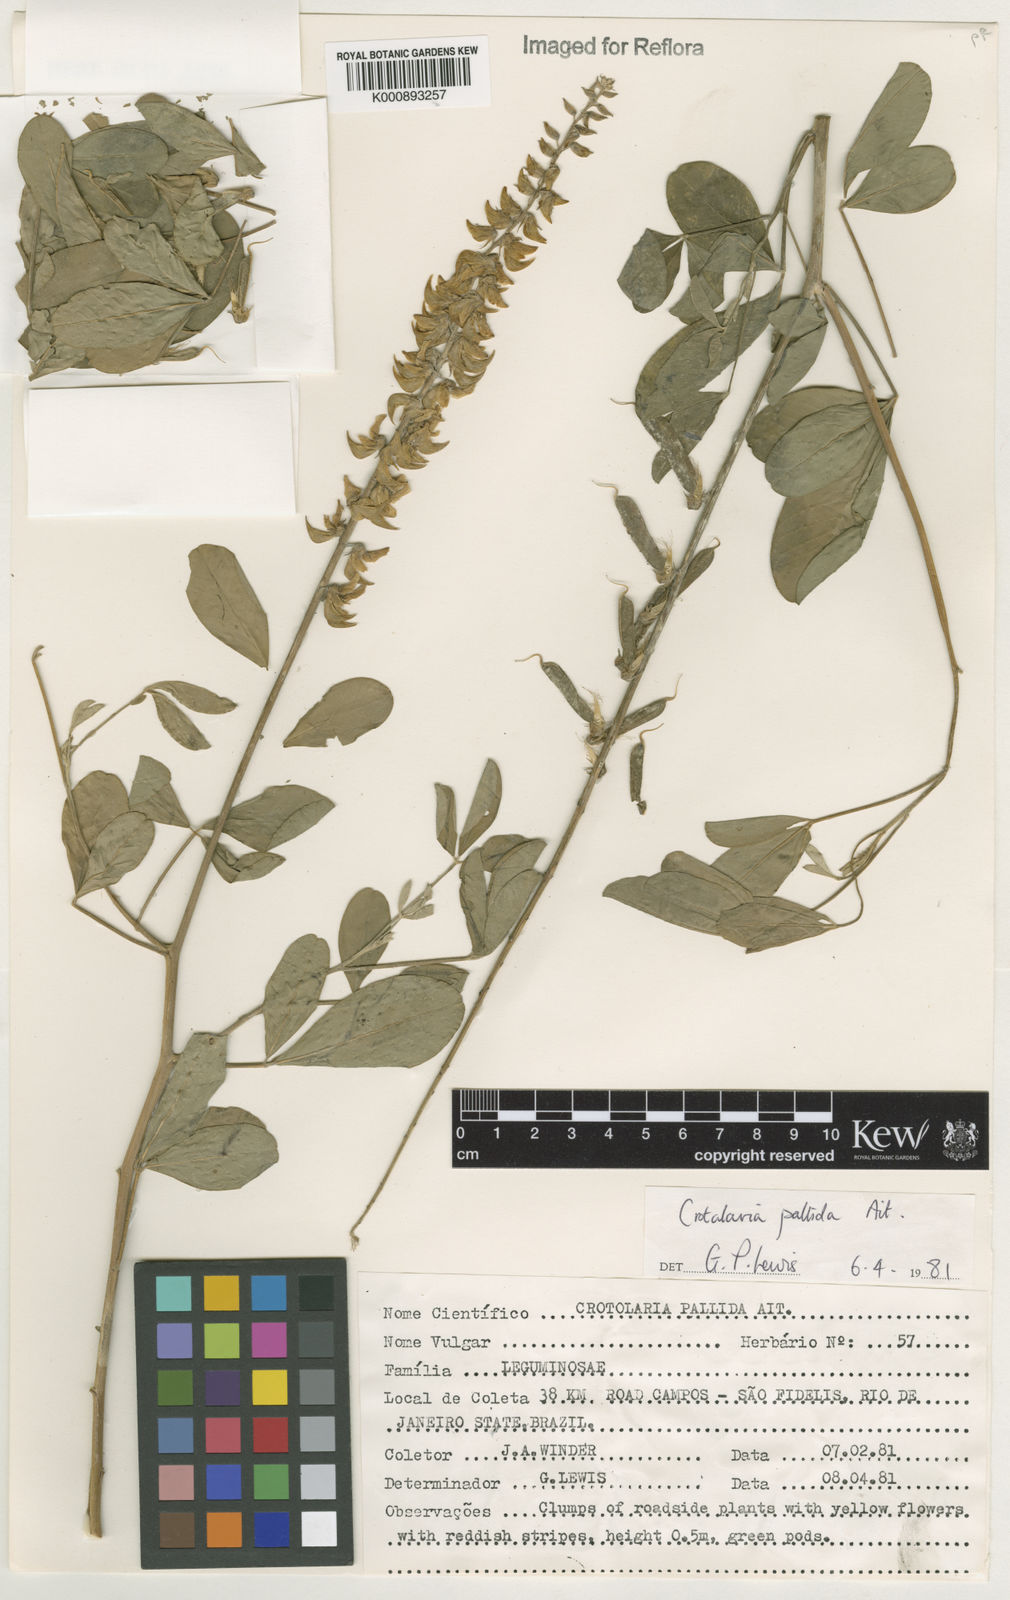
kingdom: Plantae
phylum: Tracheophyta
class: Magnoliopsida
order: Fabales
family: Fabaceae
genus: Crotalaria
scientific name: Crotalaria pallida
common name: Smooth rattlebox
